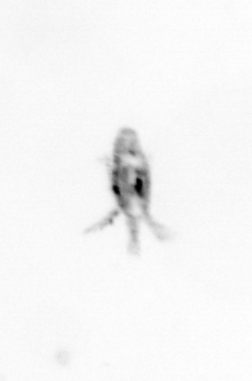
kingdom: Animalia
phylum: Arthropoda
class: Copepoda
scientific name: Copepoda
